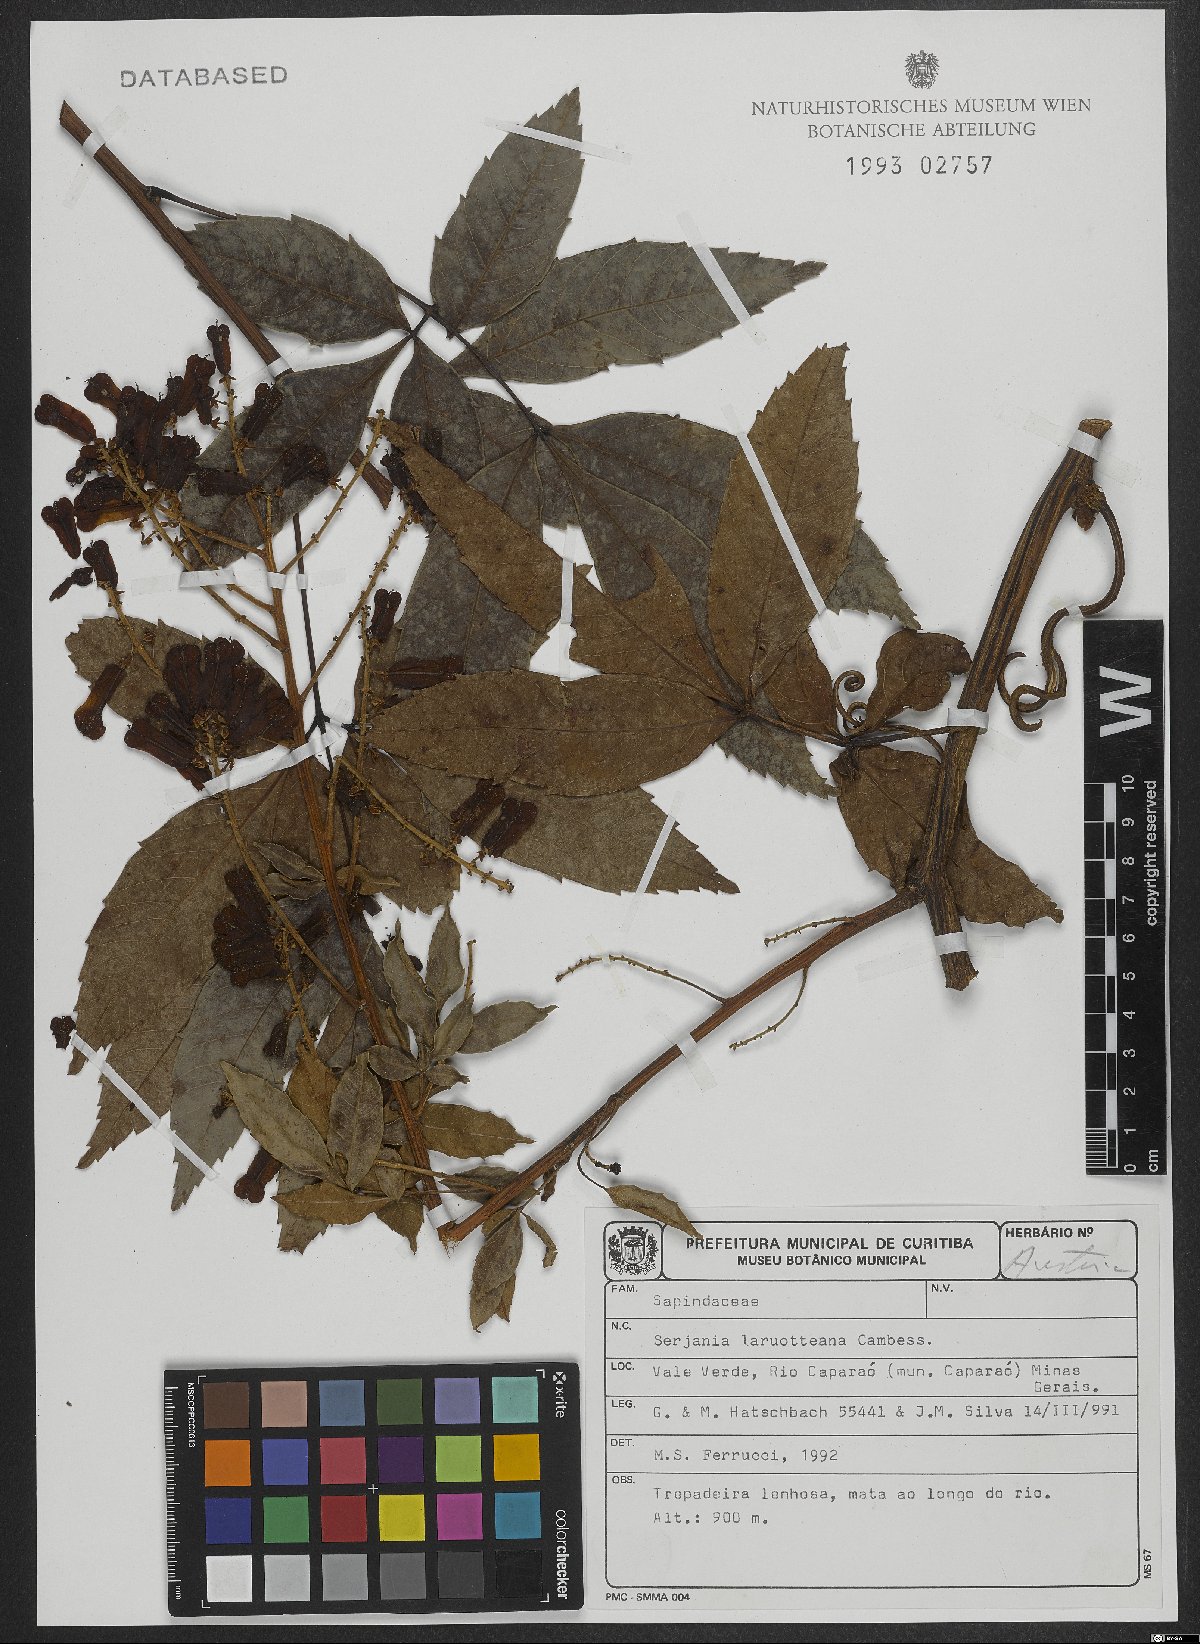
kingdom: Plantae
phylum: Tracheophyta
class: Magnoliopsida
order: Sapindales
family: Sapindaceae
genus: Serjania
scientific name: Serjania laruotteana
